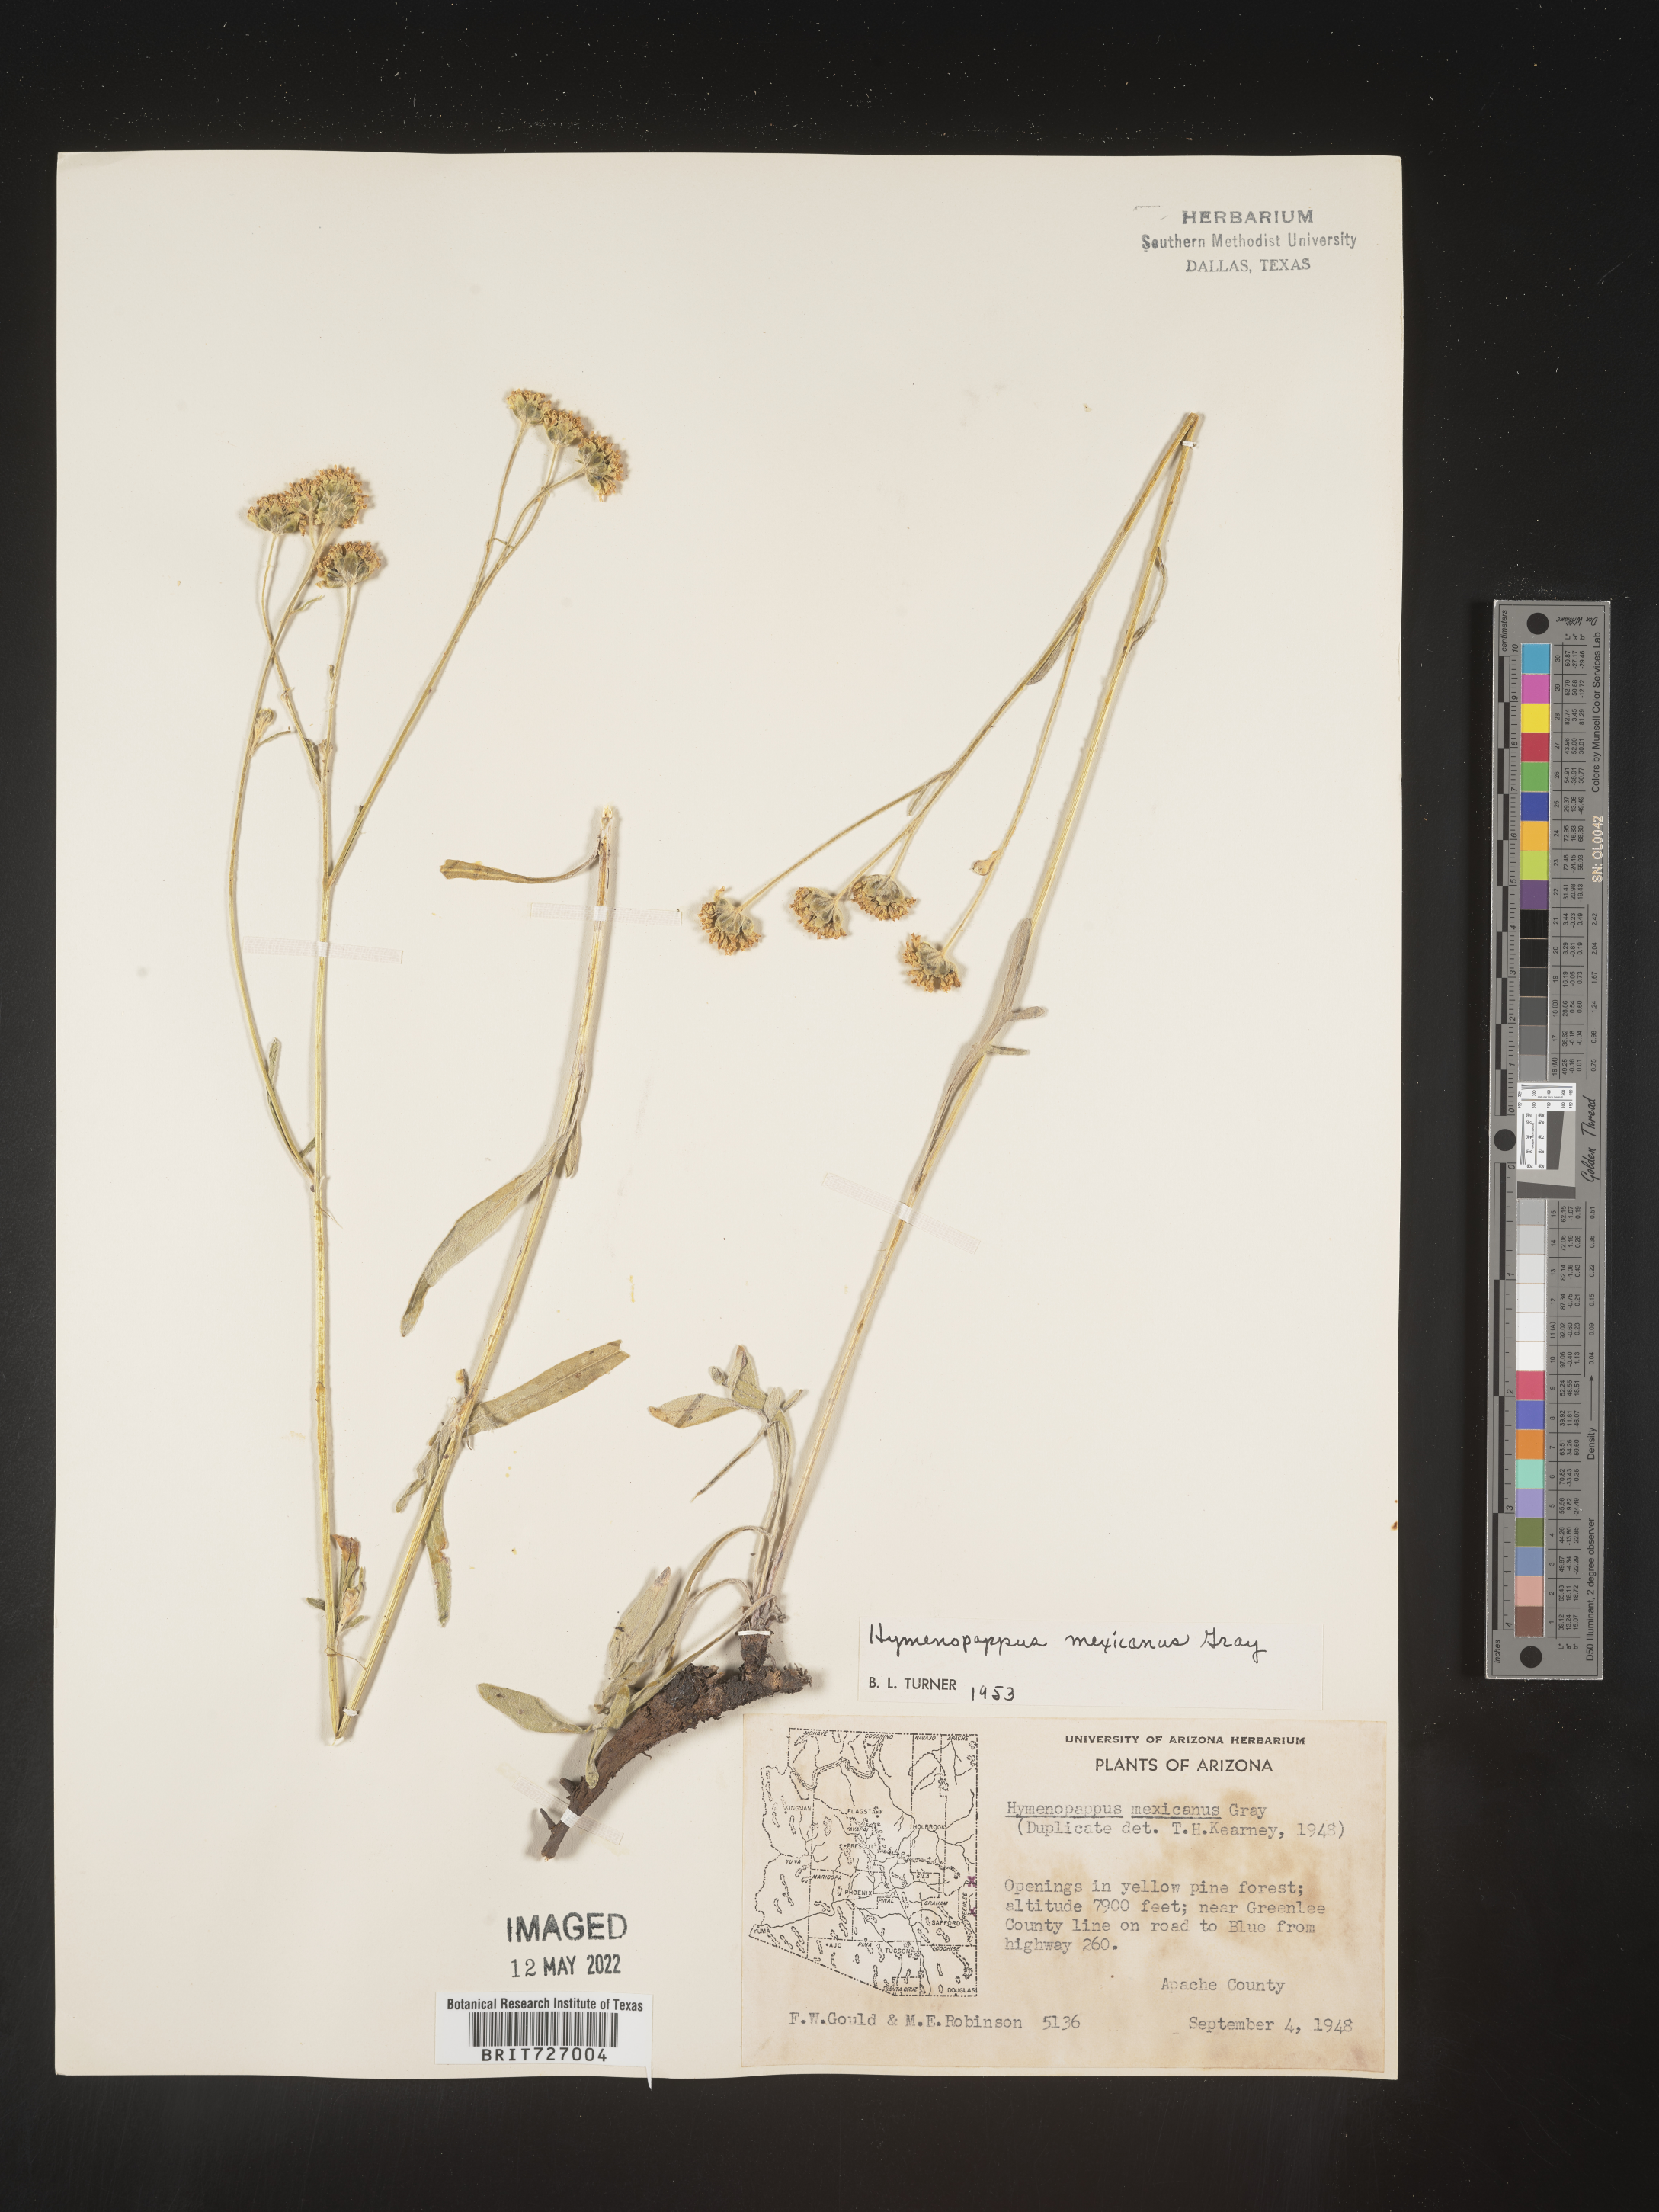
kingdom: Plantae
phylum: Tracheophyta
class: Magnoliopsida
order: Asterales
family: Asteraceae
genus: Hymenopappus
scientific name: Hymenopappus mexicanus
